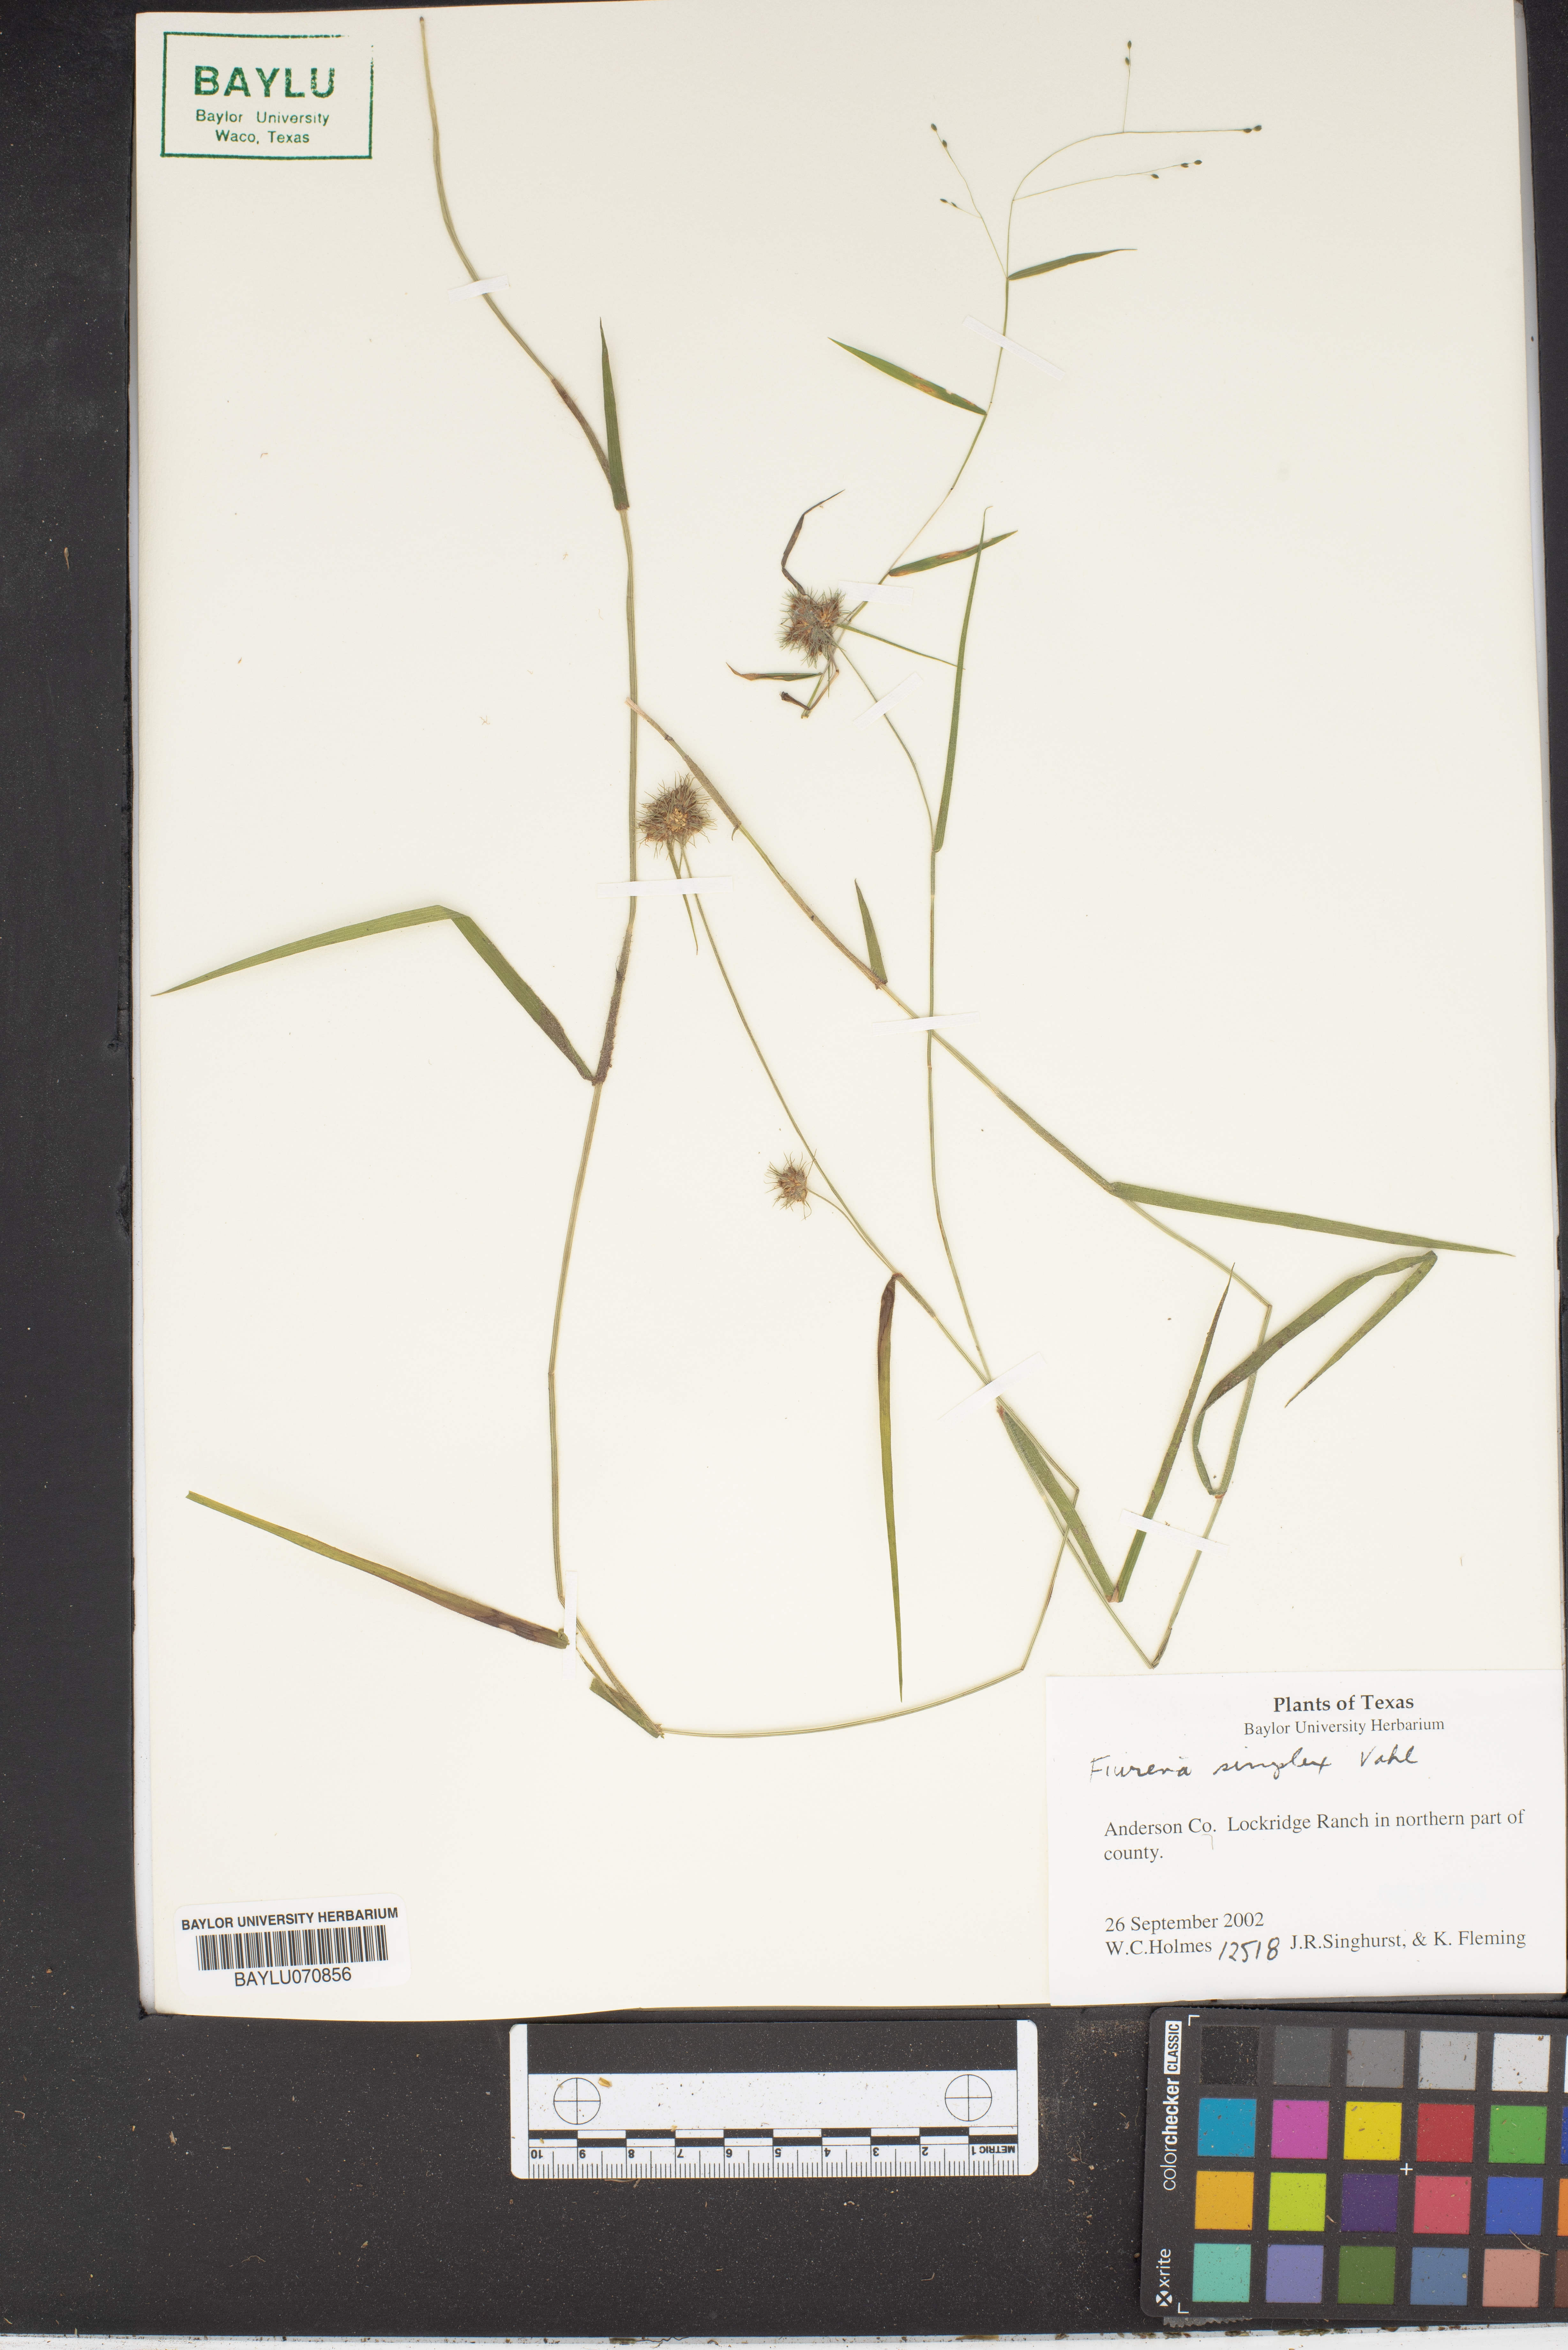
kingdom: Plantae
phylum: Tracheophyta
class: Liliopsida
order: Poales
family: Cyperaceae
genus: Fuirena
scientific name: Fuirena simplex
